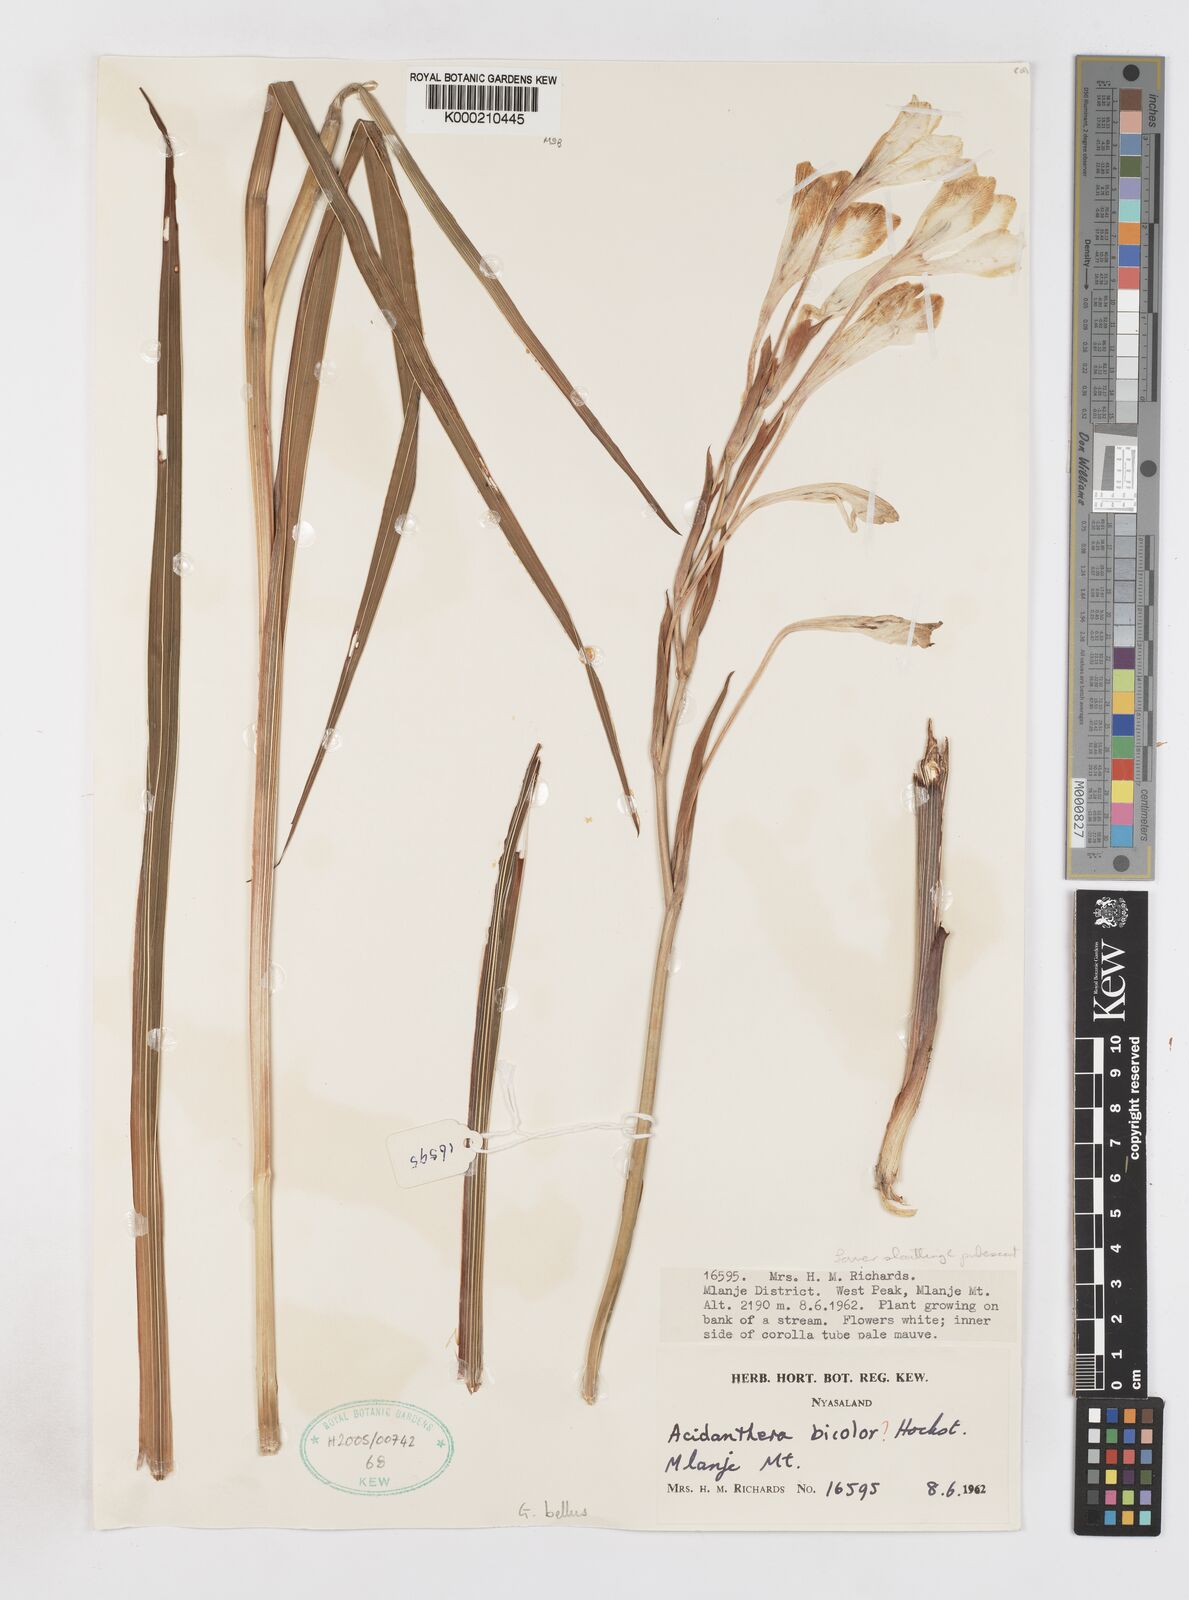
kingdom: Plantae
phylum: Tracheophyta
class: Liliopsida
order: Asparagales
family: Iridaceae
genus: Gladiolus
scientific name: Gladiolus bellus
